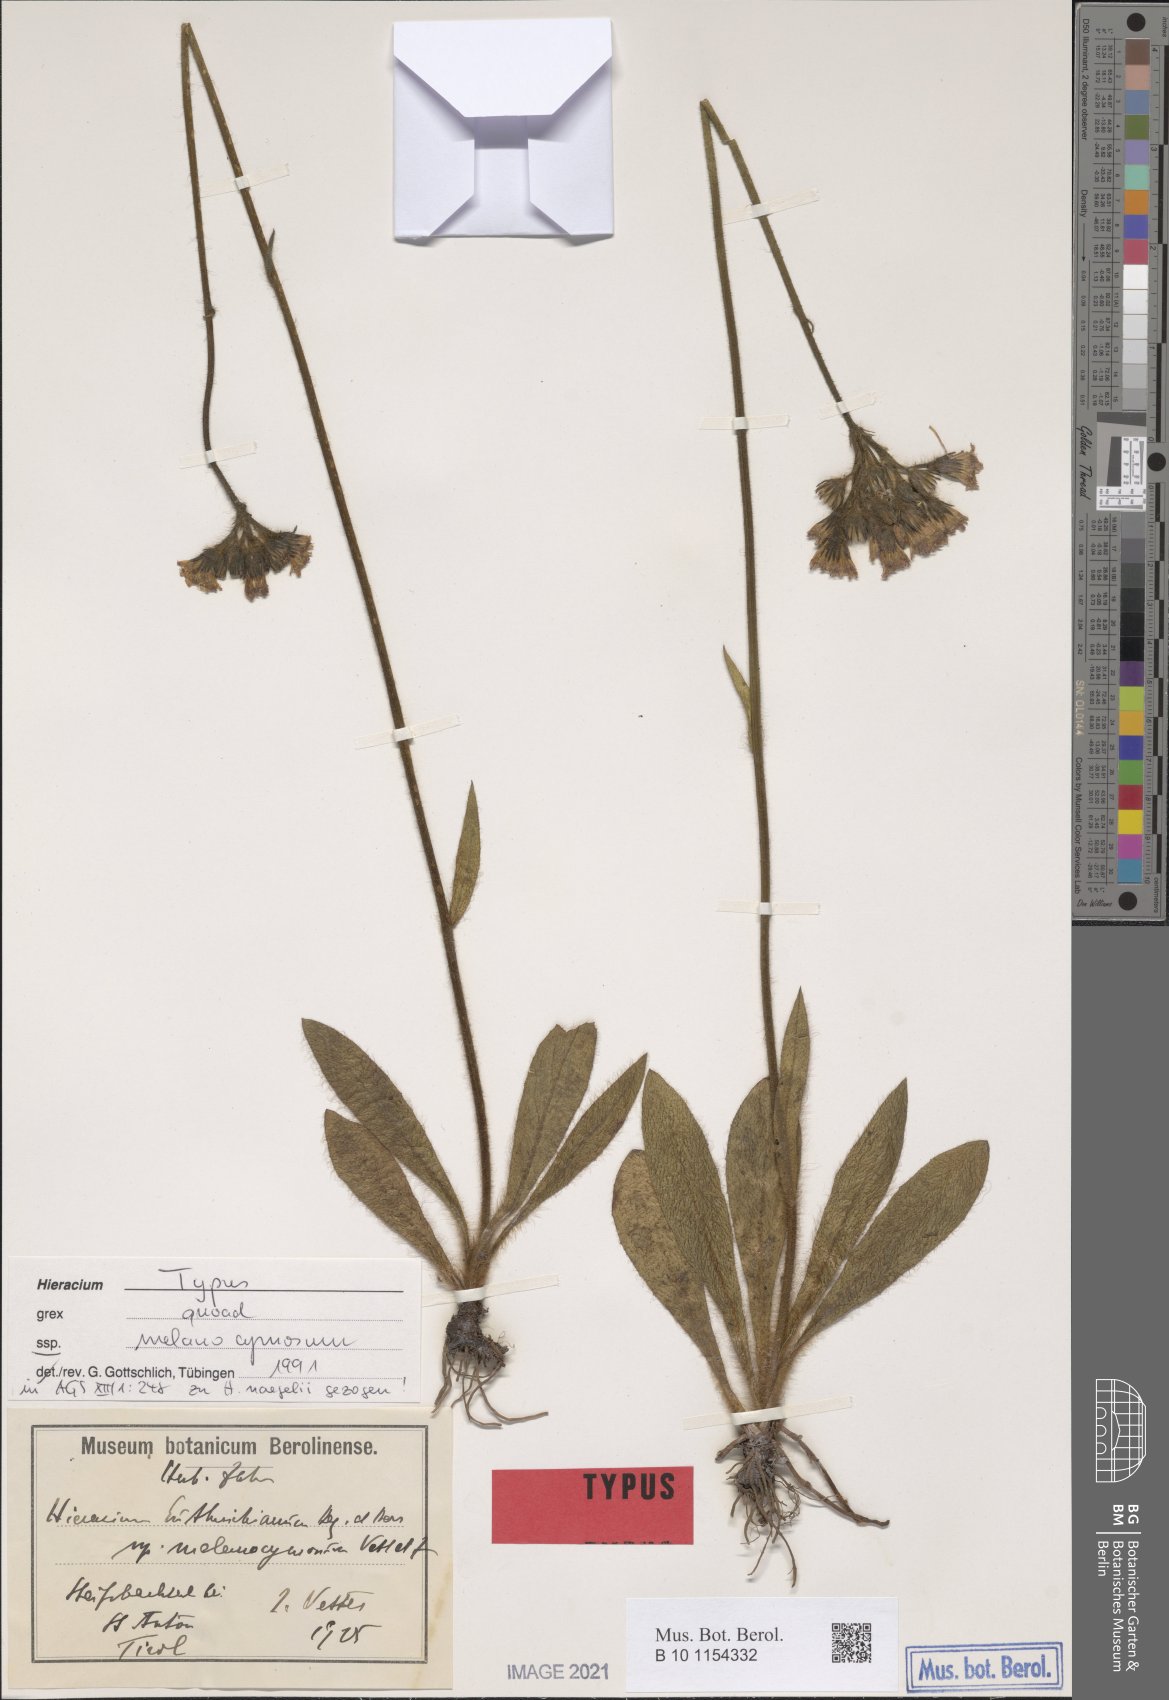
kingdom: Plantae
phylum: Tracheophyta
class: Magnoliopsida
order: Asterales
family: Asteraceae
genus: Pilosella
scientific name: Pilosella
